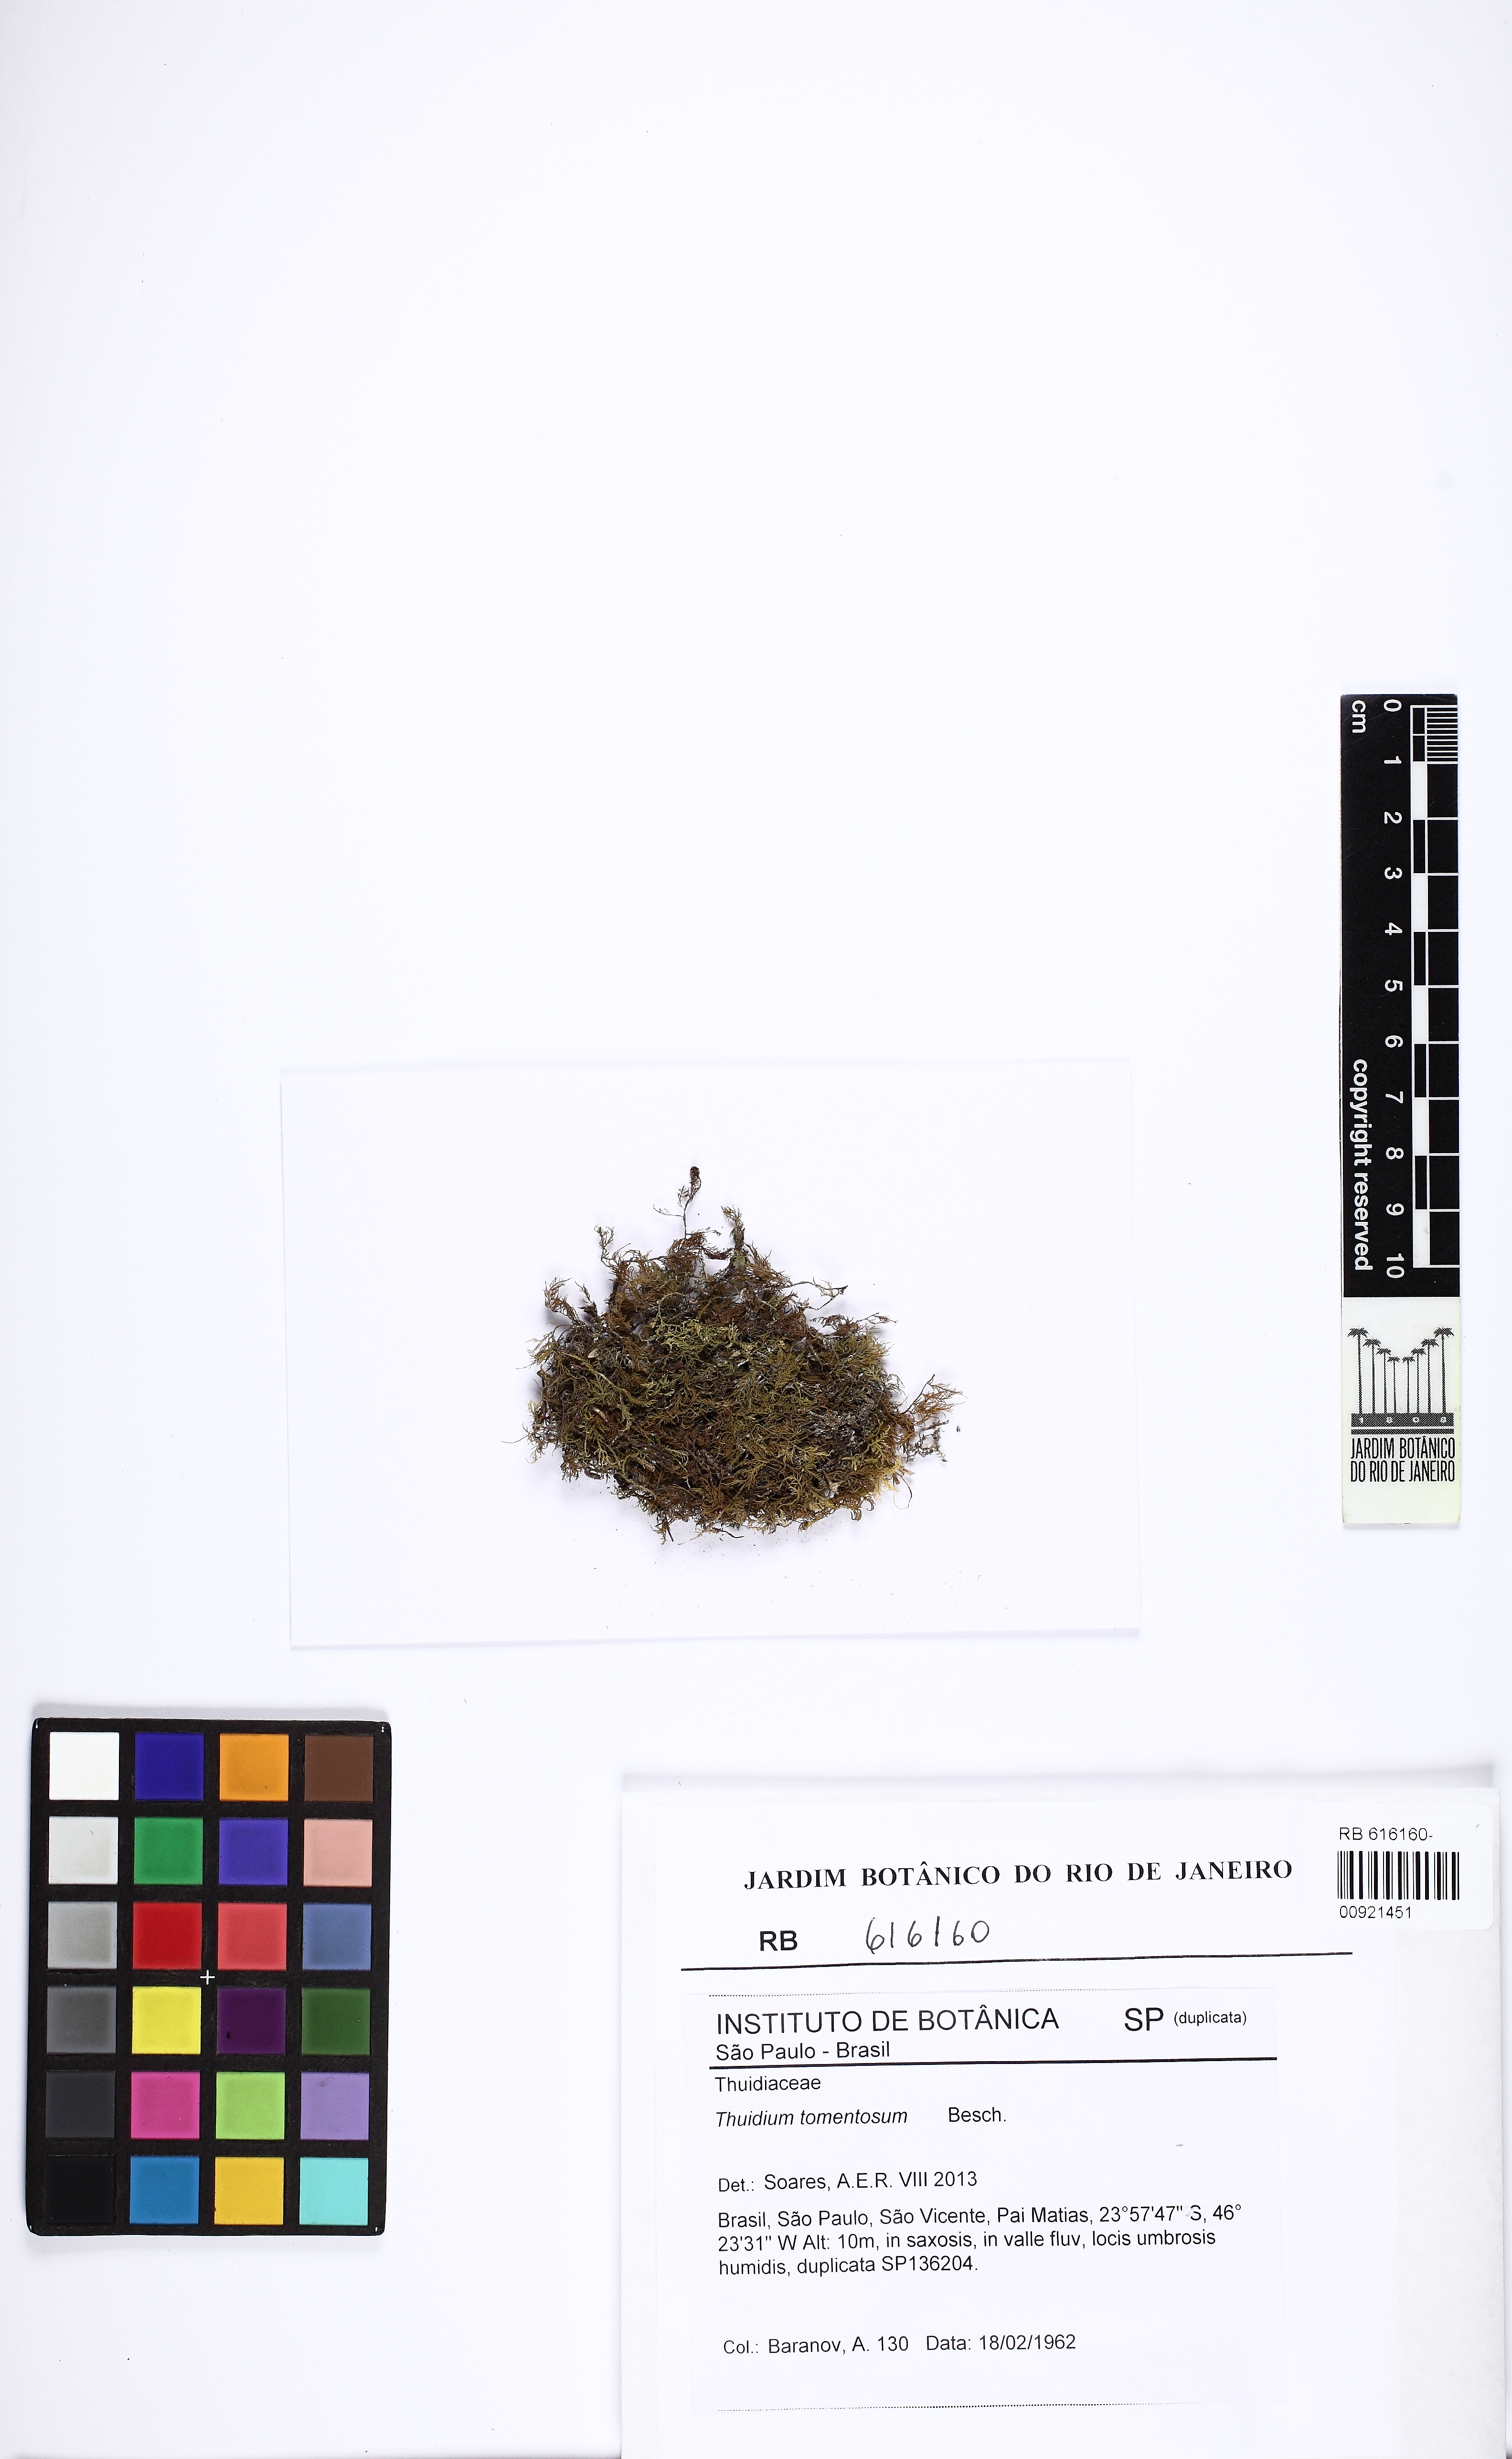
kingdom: Plantae
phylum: Bryophyta
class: Bryopsida
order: Hypnales
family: Thuidiaceae
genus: Thuidium
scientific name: Thuidium tomentosum
